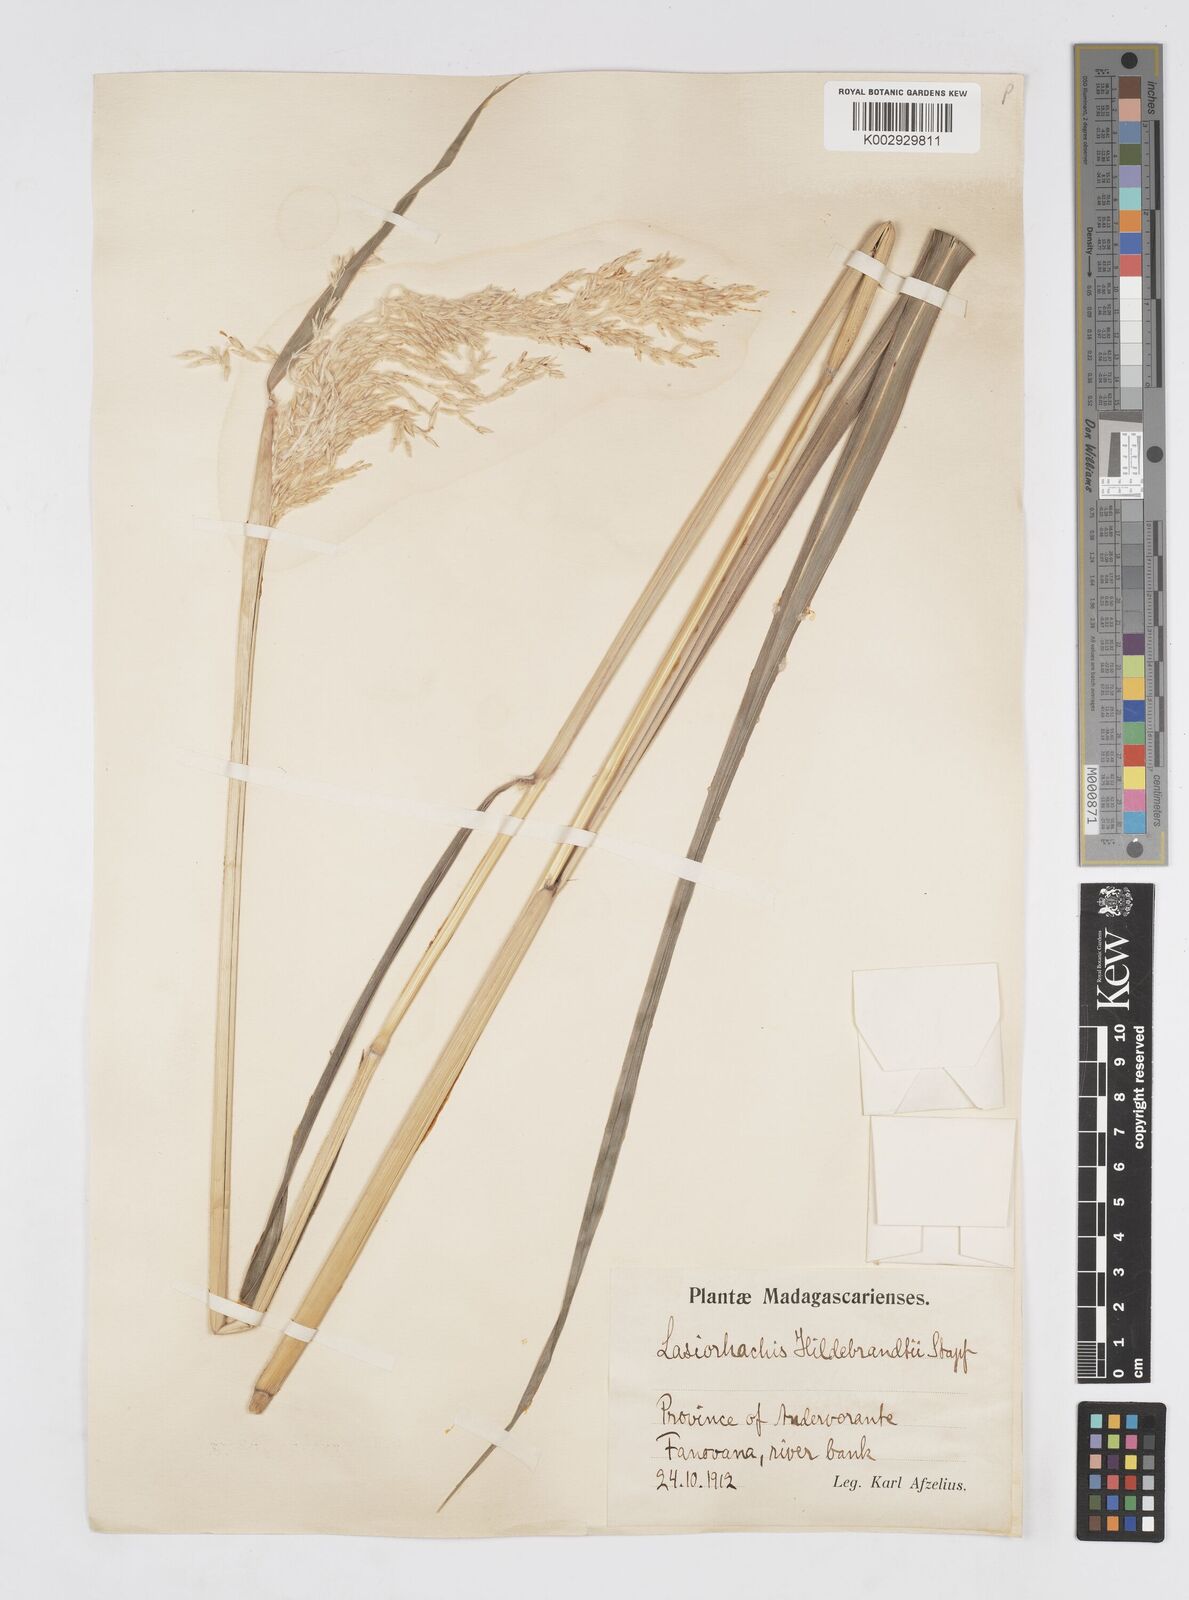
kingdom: Plantae
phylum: Tracheophyta
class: Liliopsida
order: Poales
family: Poaceae
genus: Lasiorhachis
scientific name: Lasiorhachis hildebrandtii
